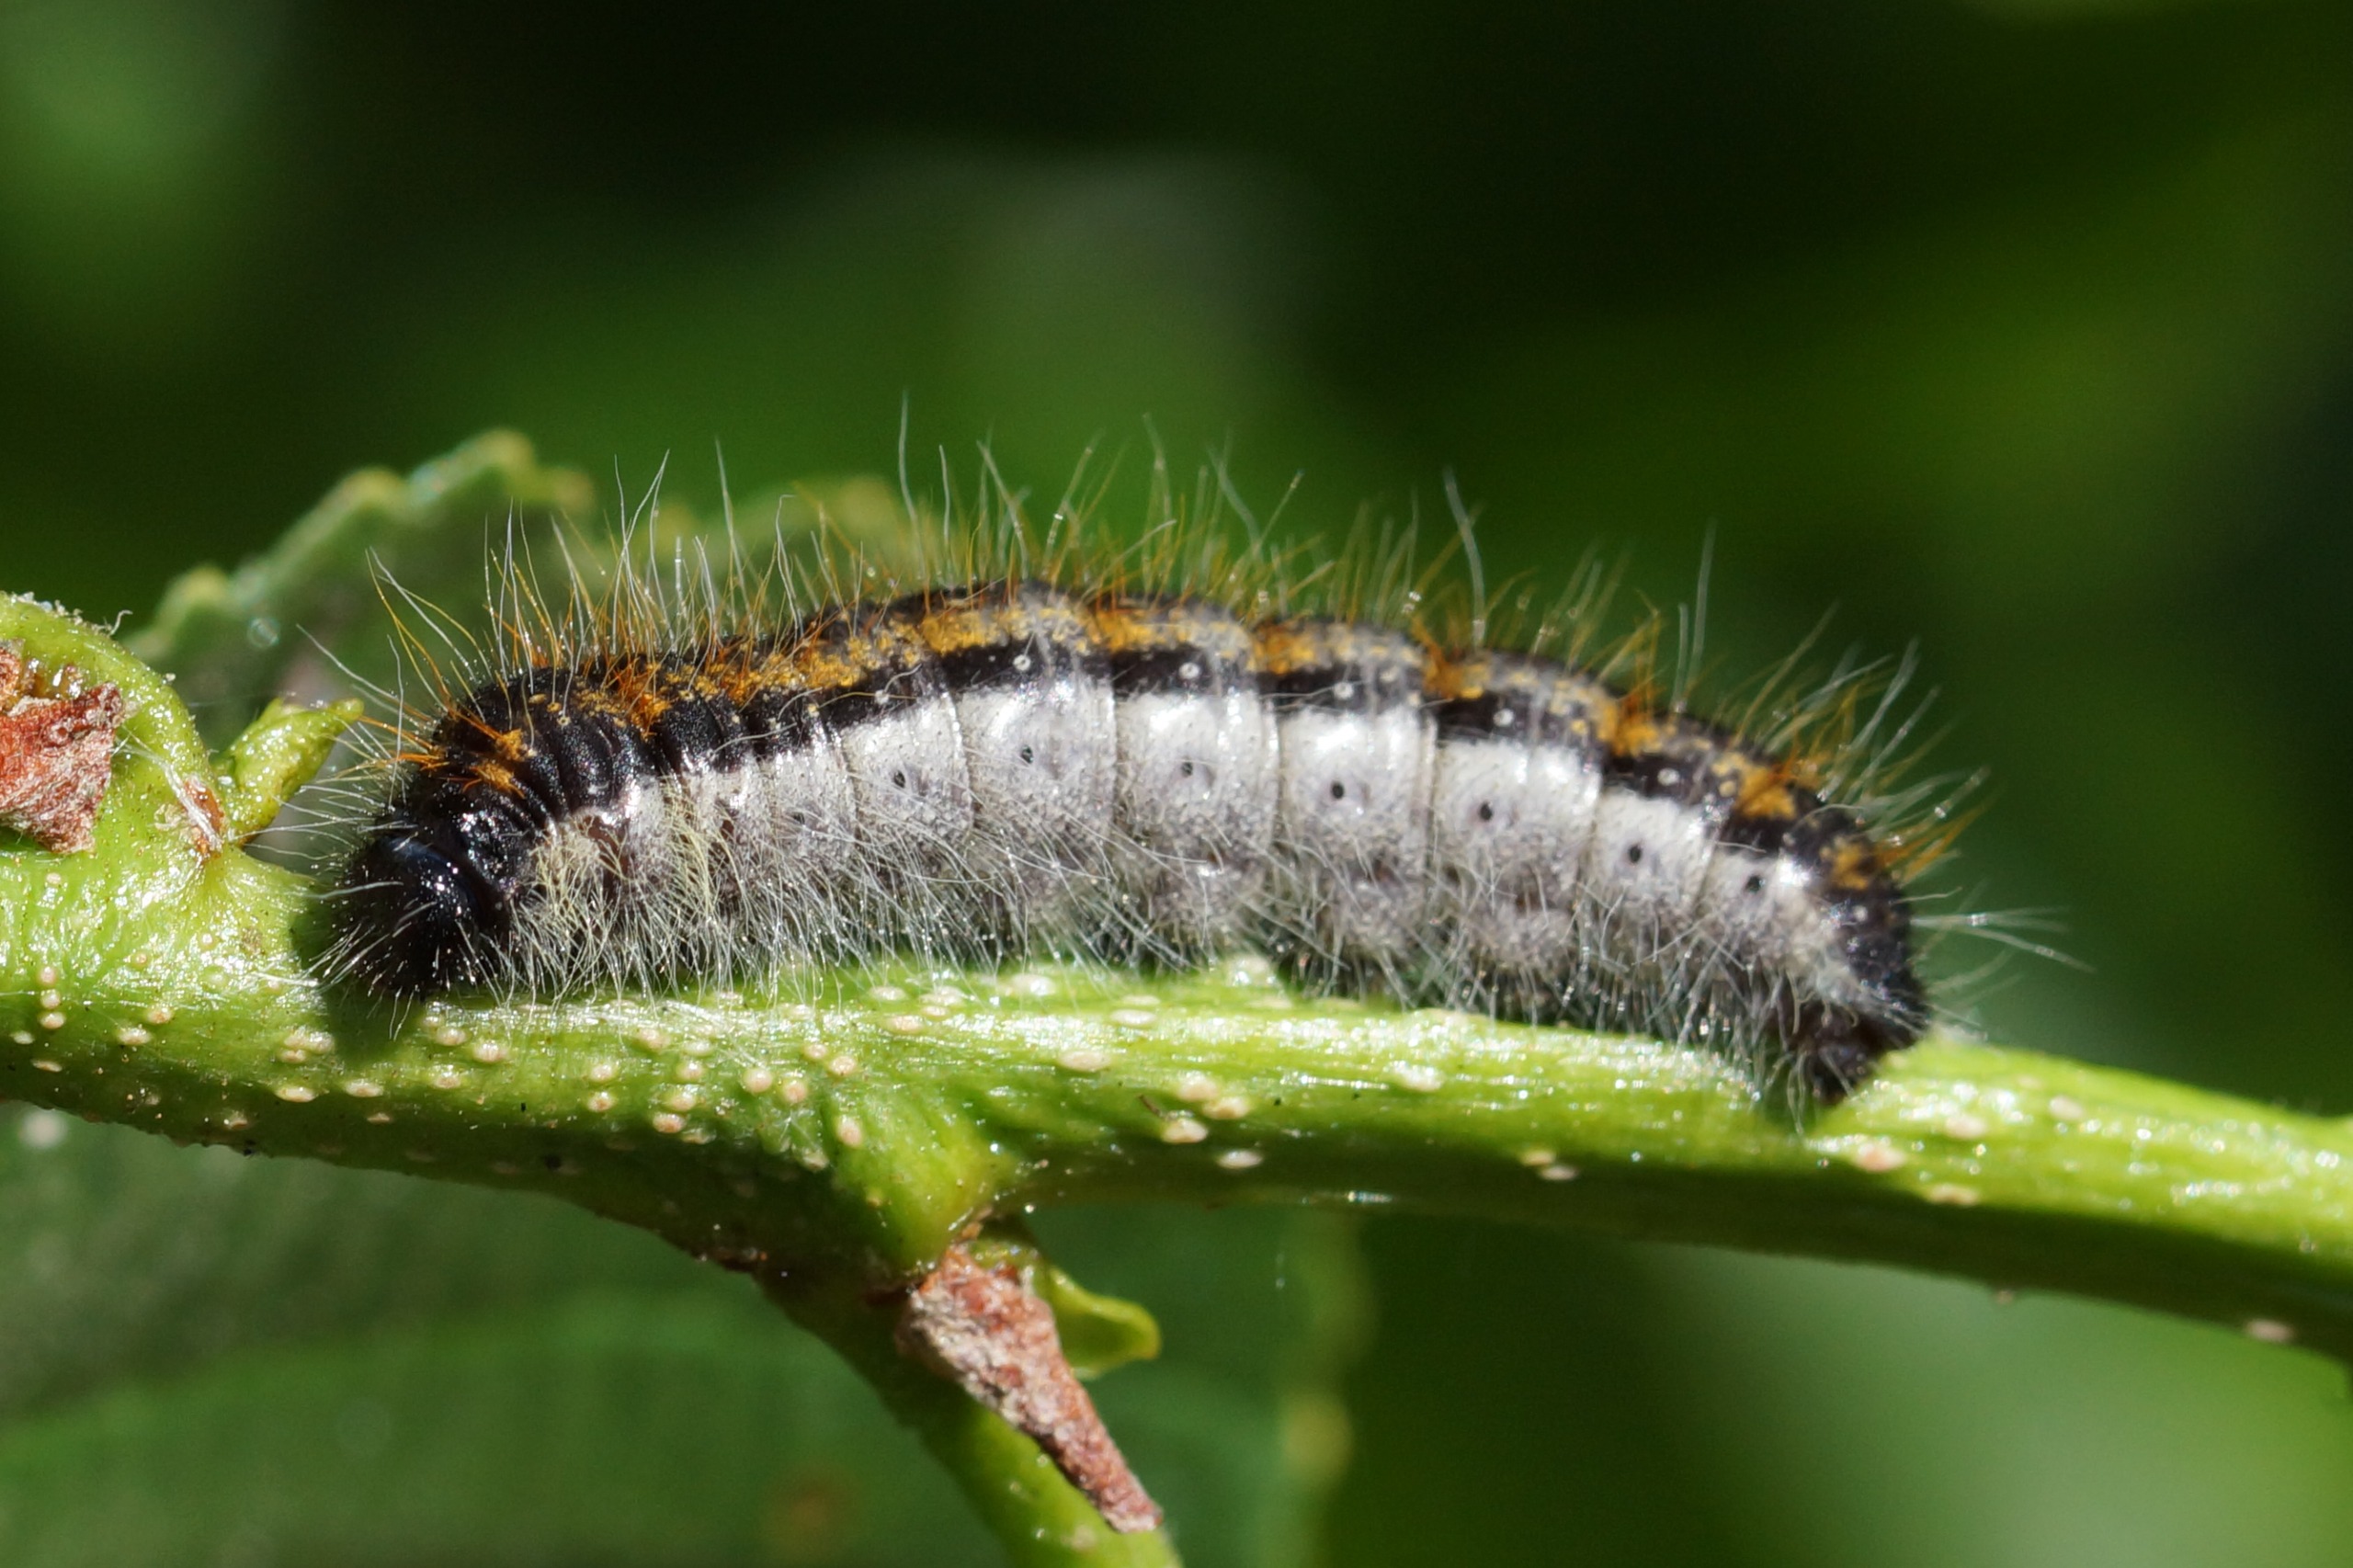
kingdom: Animalia
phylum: Arthropoda
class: Insecta
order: Lepidoptera
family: Pieridae
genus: Aporia
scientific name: Aporia crataegi
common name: Sortåret hvidvinge
